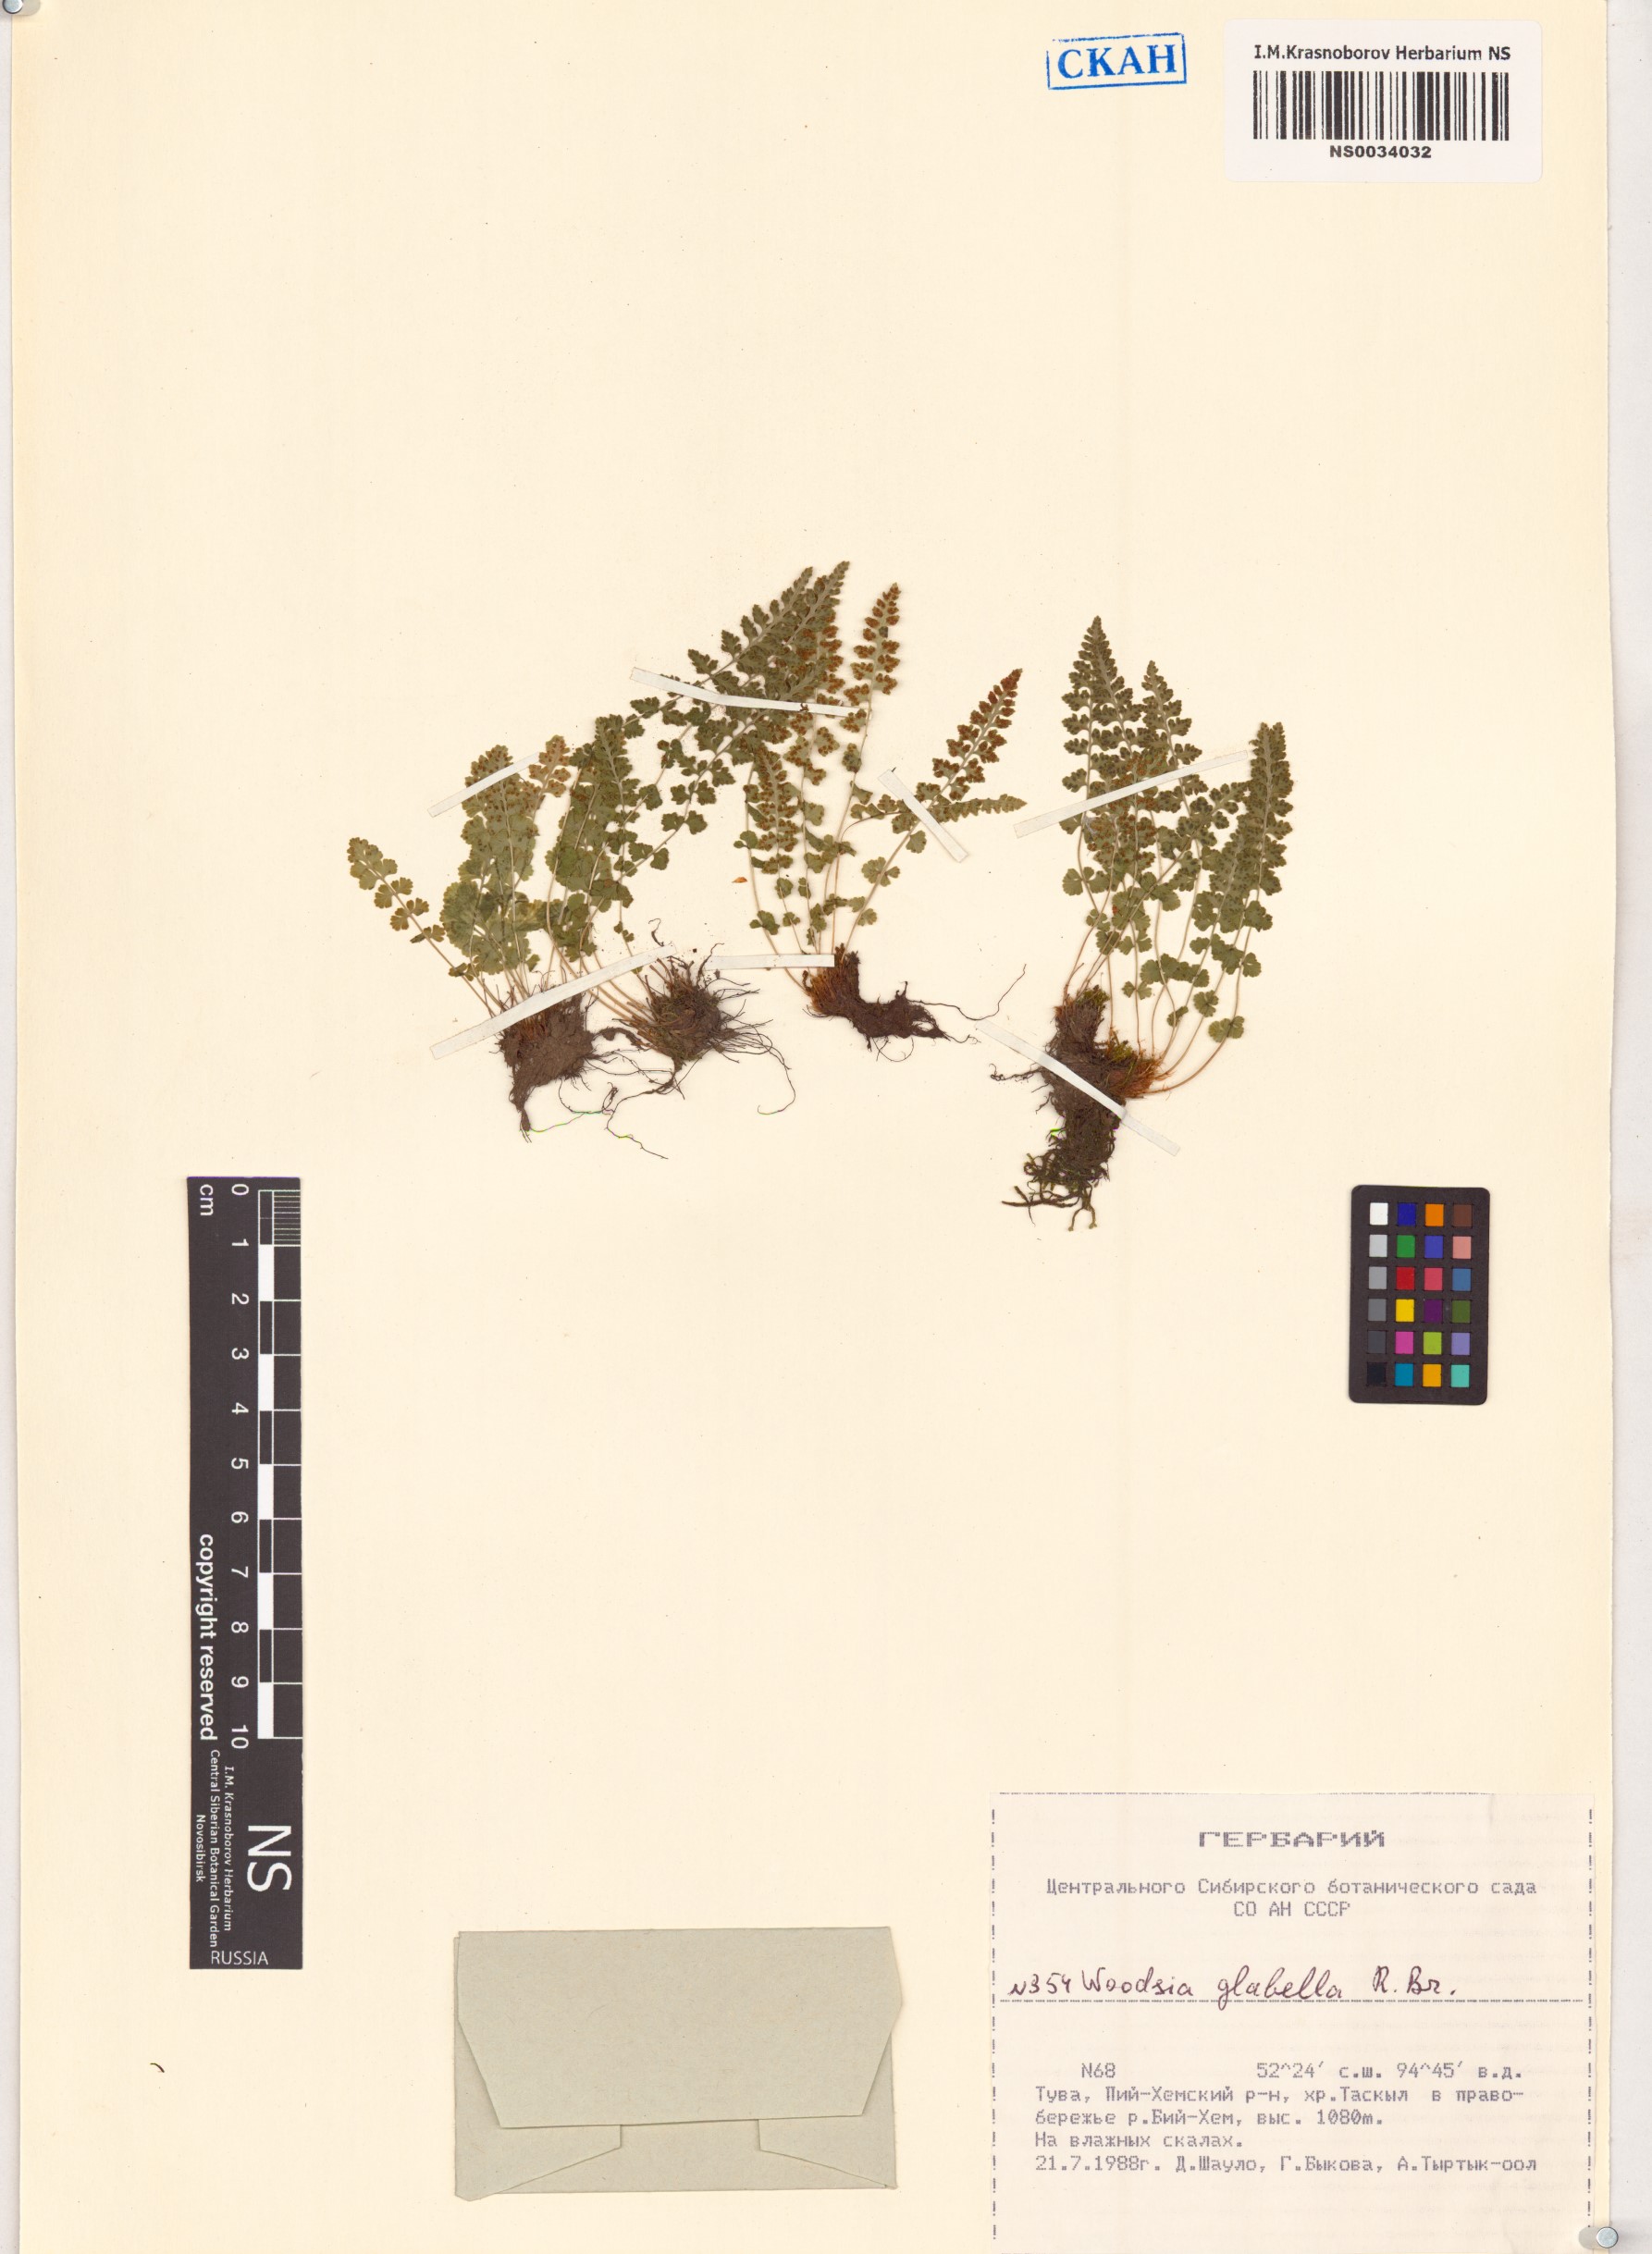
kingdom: Plantae
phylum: Tracheophyta
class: Polypodiopsida
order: Polypodiales
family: Woodsiaceae
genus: Woodsia
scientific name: Woodsia glabella
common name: Smooth woodsia
